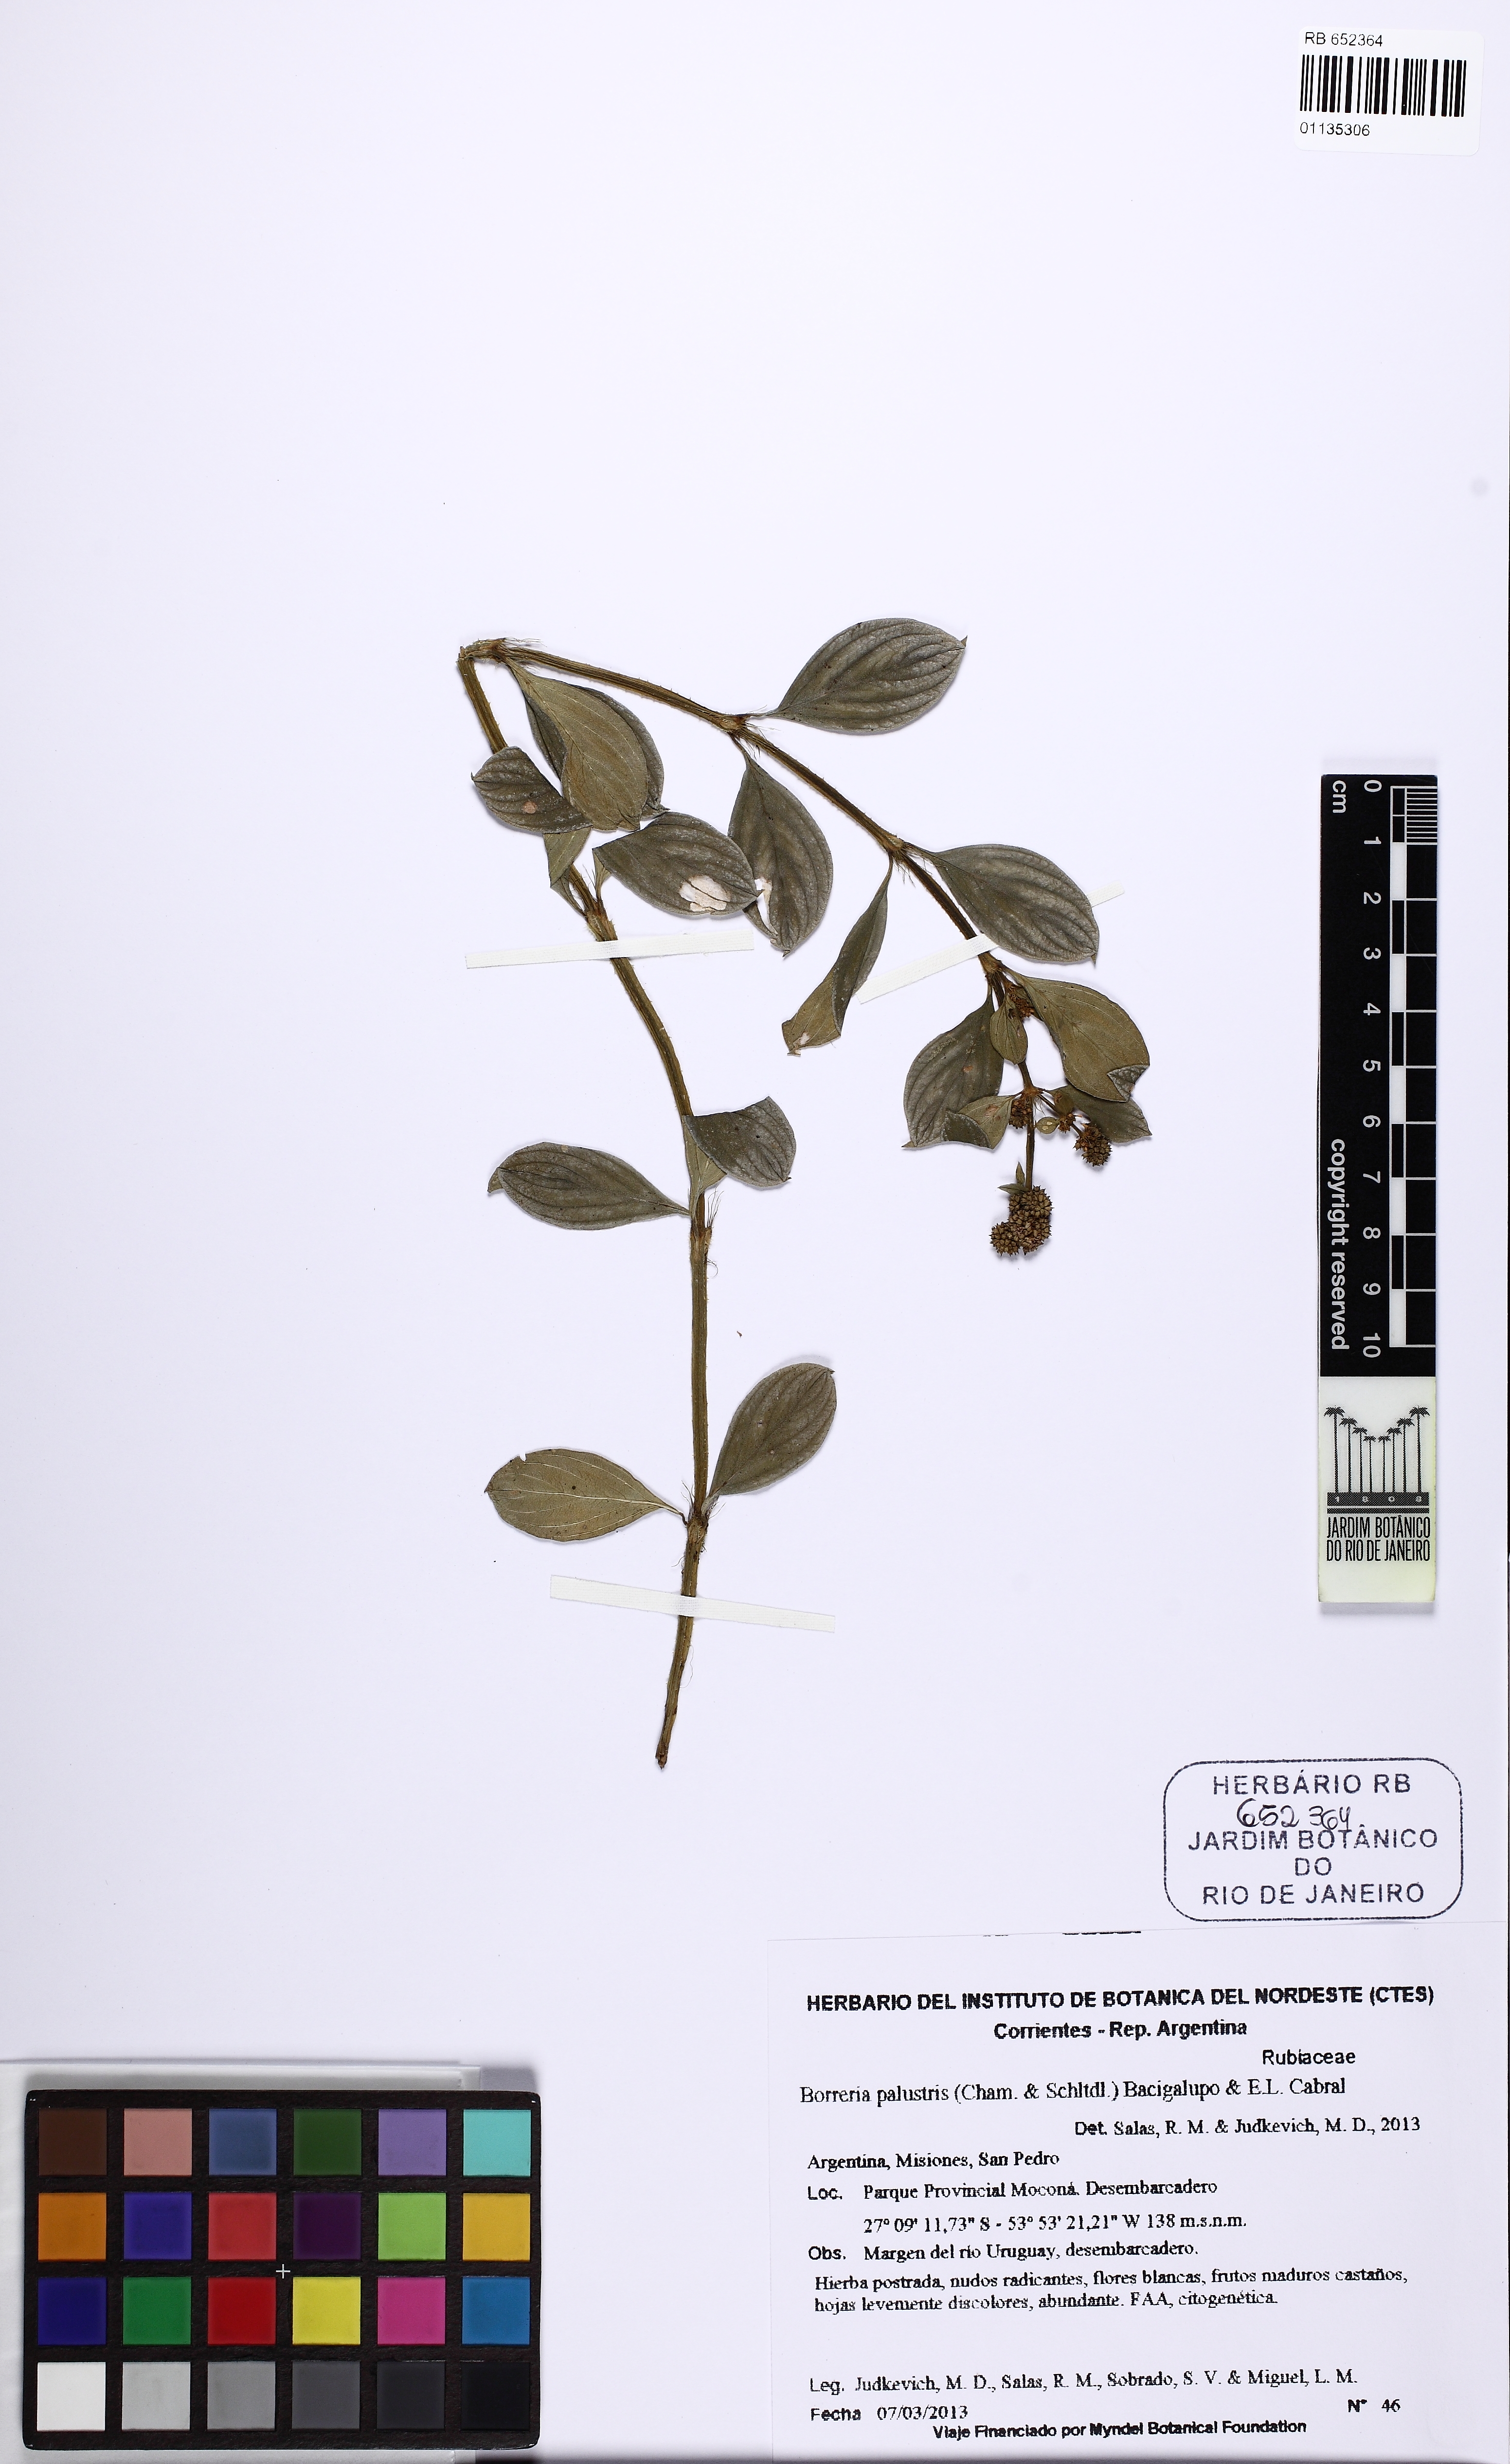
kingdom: Plantae
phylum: Tracheophyta
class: Magnoliopsida
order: Gentianales
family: Rubiaceae
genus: Galianthe
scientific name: Galianthe palustris
